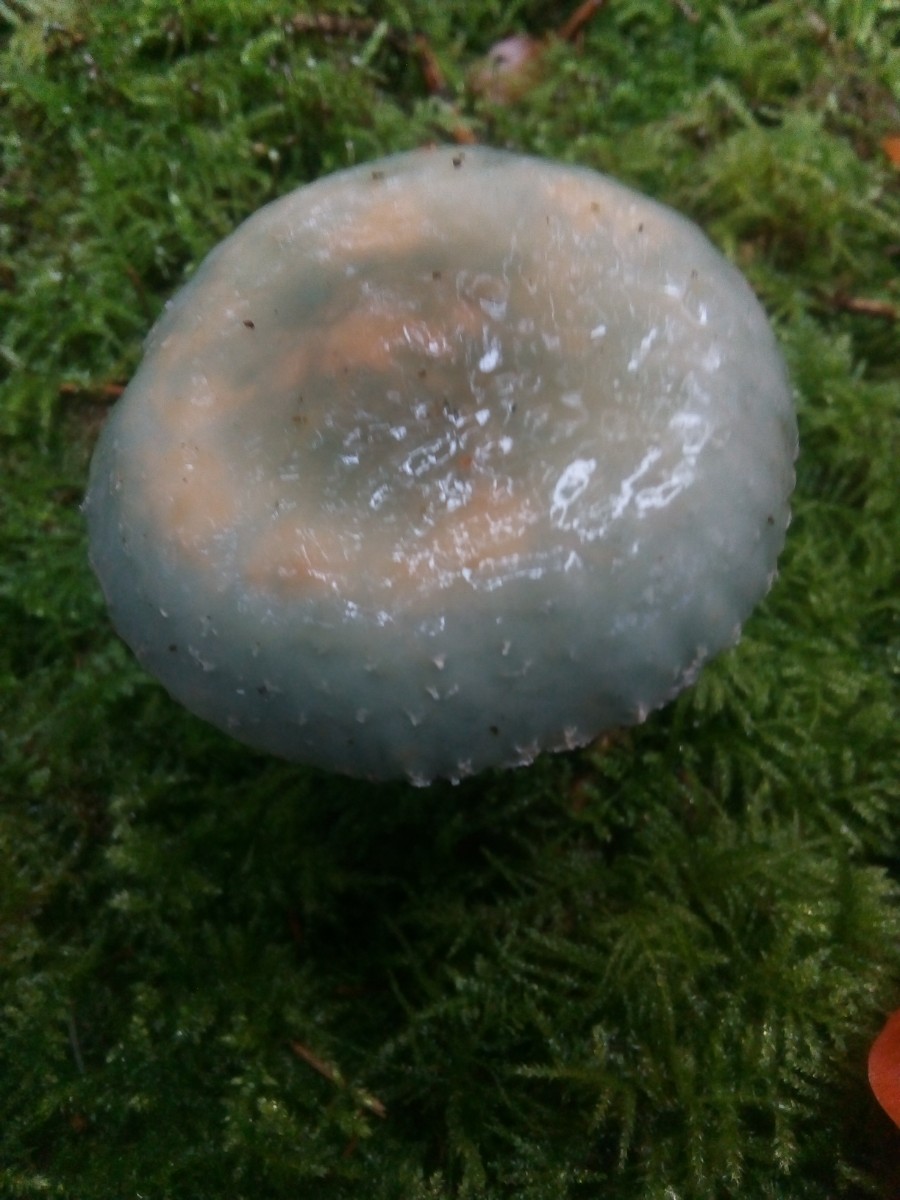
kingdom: Fungi
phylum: Basidiomycota
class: Agaricomycetes
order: Agaricales
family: Strophariaceae
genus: Stropharia
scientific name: Stropharia aeruginosa
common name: spanskgrøn bredblad
